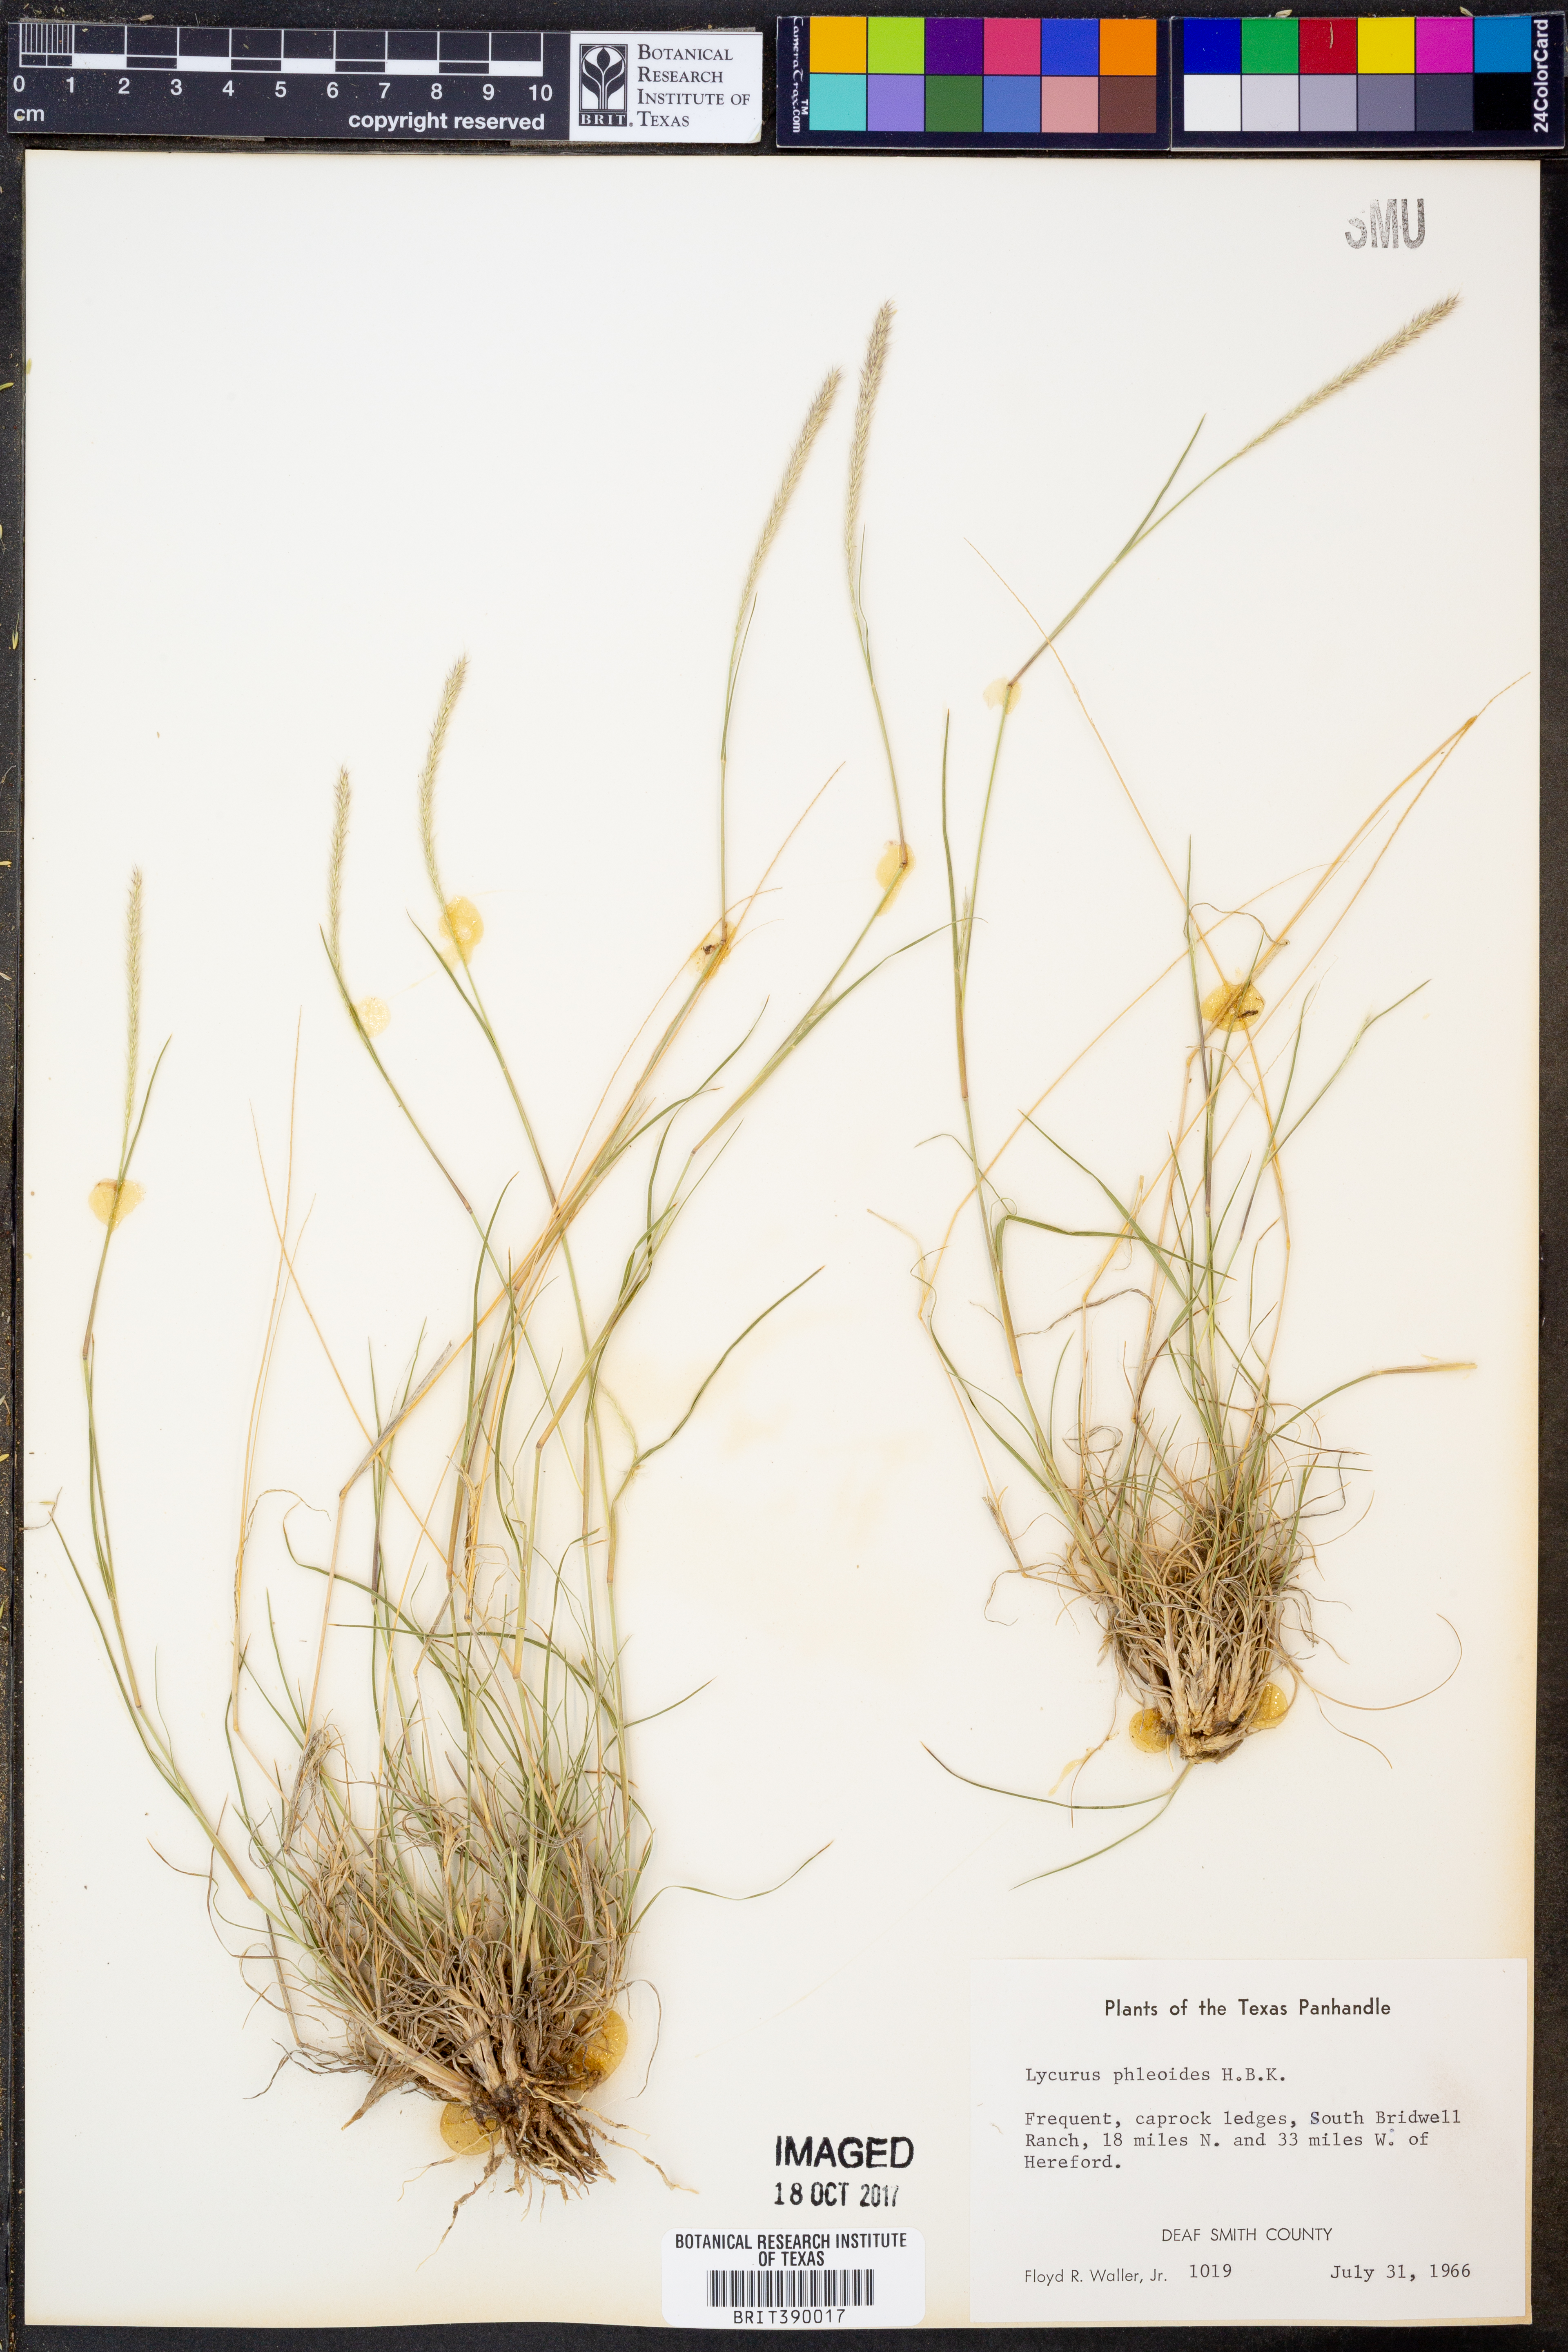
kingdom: Plantae
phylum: Tracheophyta
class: Liliopsida
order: Poales
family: Poaceae
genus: Muhlenbergia
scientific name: Muhlenbergia phleoides
